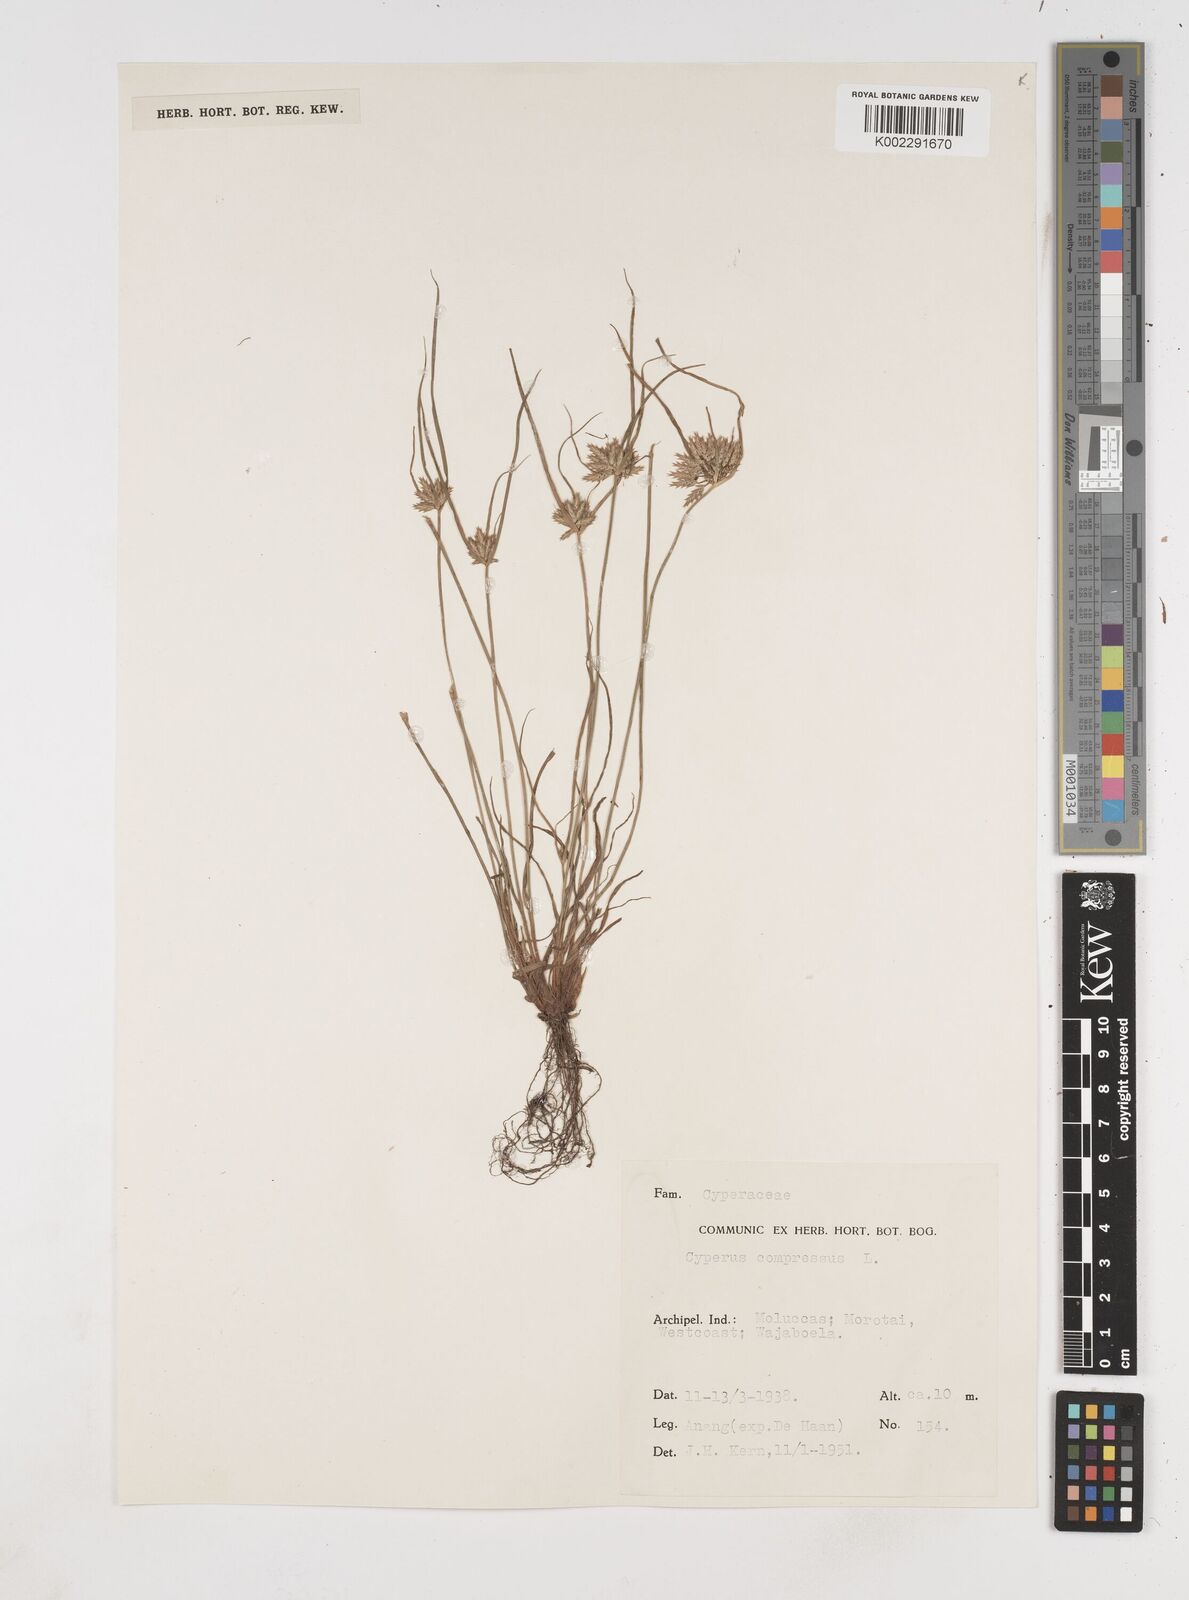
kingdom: Plantae
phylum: Tracheophyta
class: Liliopsida
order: Poales
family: Cyperaceae
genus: Cyperus
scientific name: Cyperus compressus
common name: Poorland flatsedge
